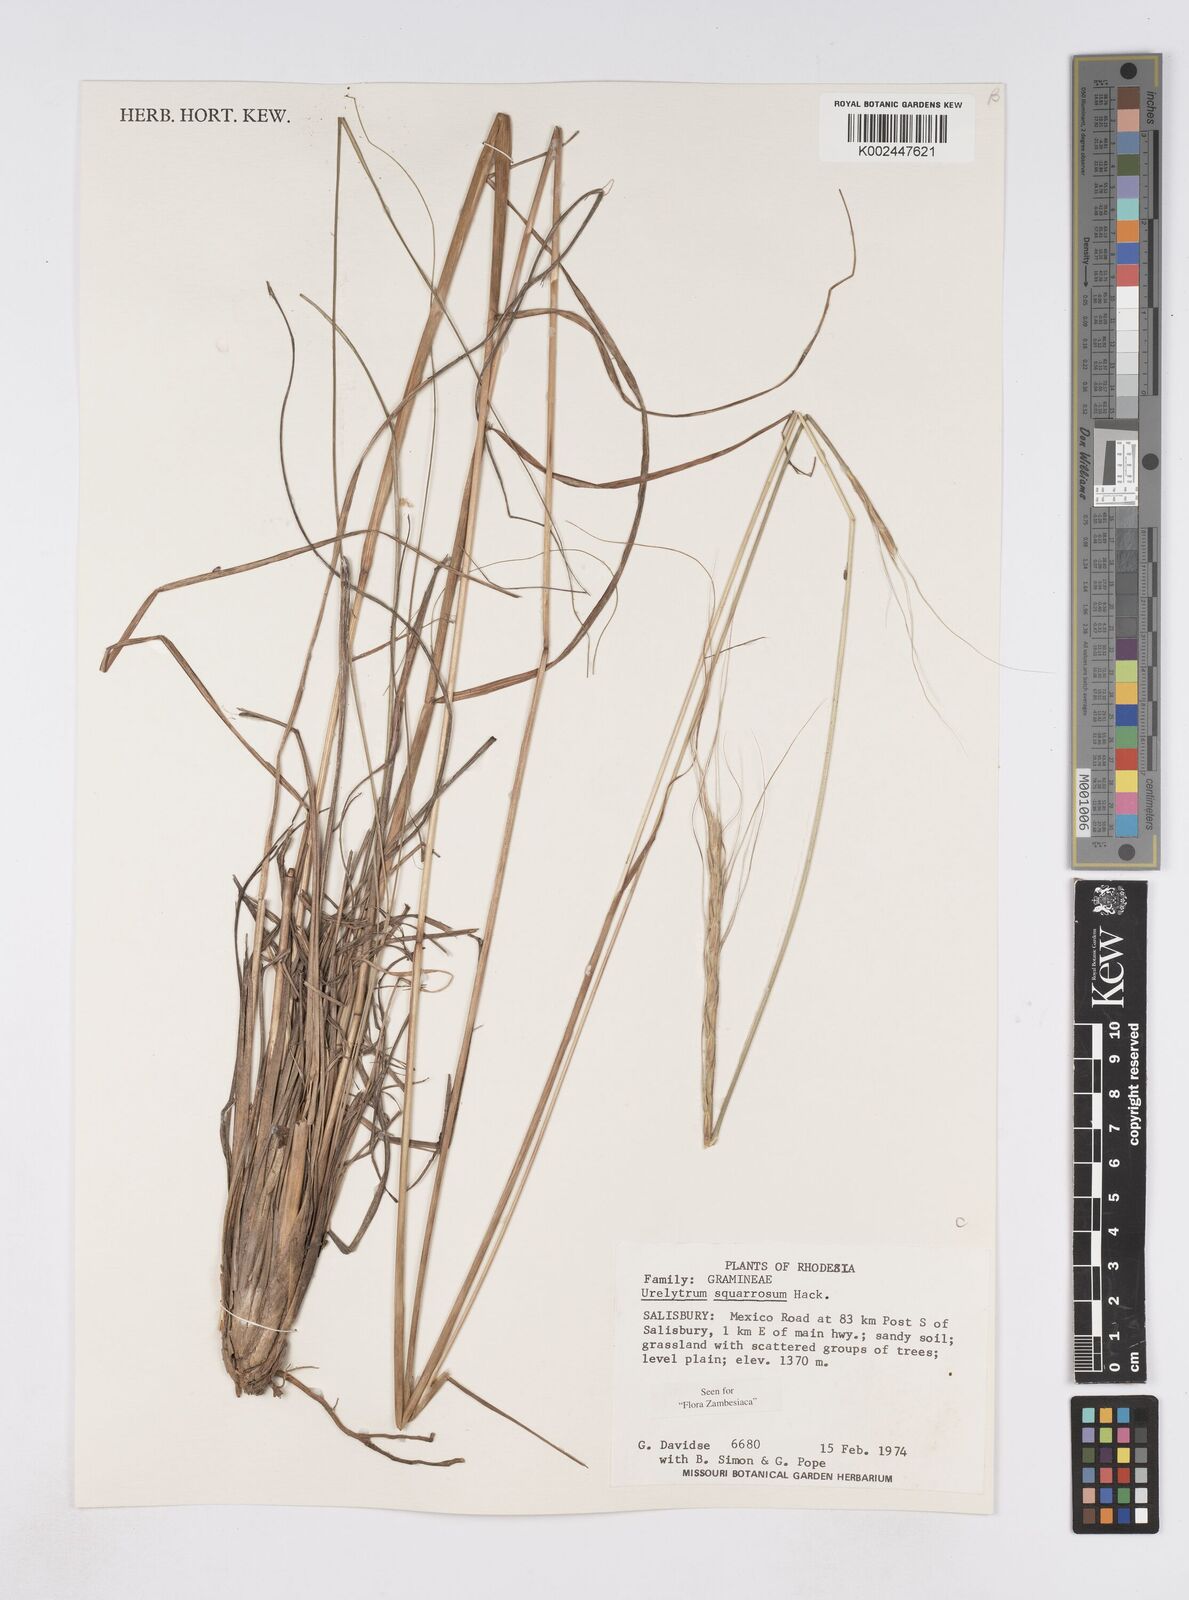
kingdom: Plantae
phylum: Tracheophyta
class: Liliopsida
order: Poales
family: Poaceae
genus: Urelytrum
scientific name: Urelytrum agropyroides
